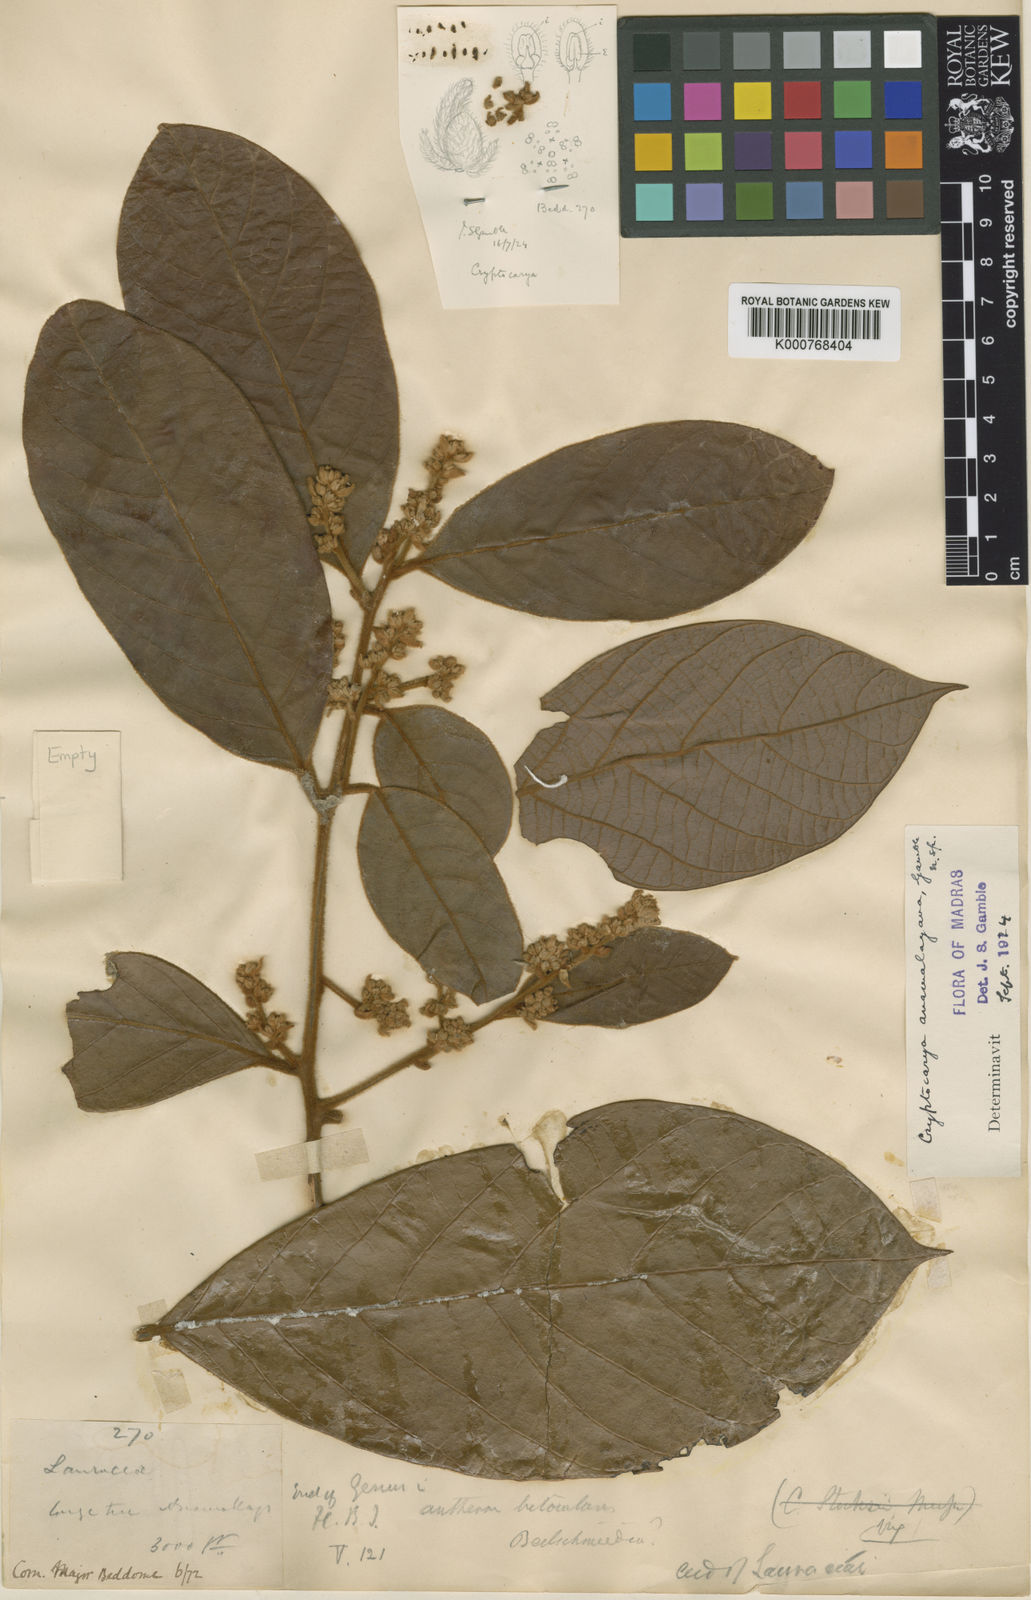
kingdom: Plantae
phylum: Tracheophyta
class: Magnoliopsida
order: Laurales
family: Lauraceae
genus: Cryptocarya
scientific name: Cryptocarya anamalayana
